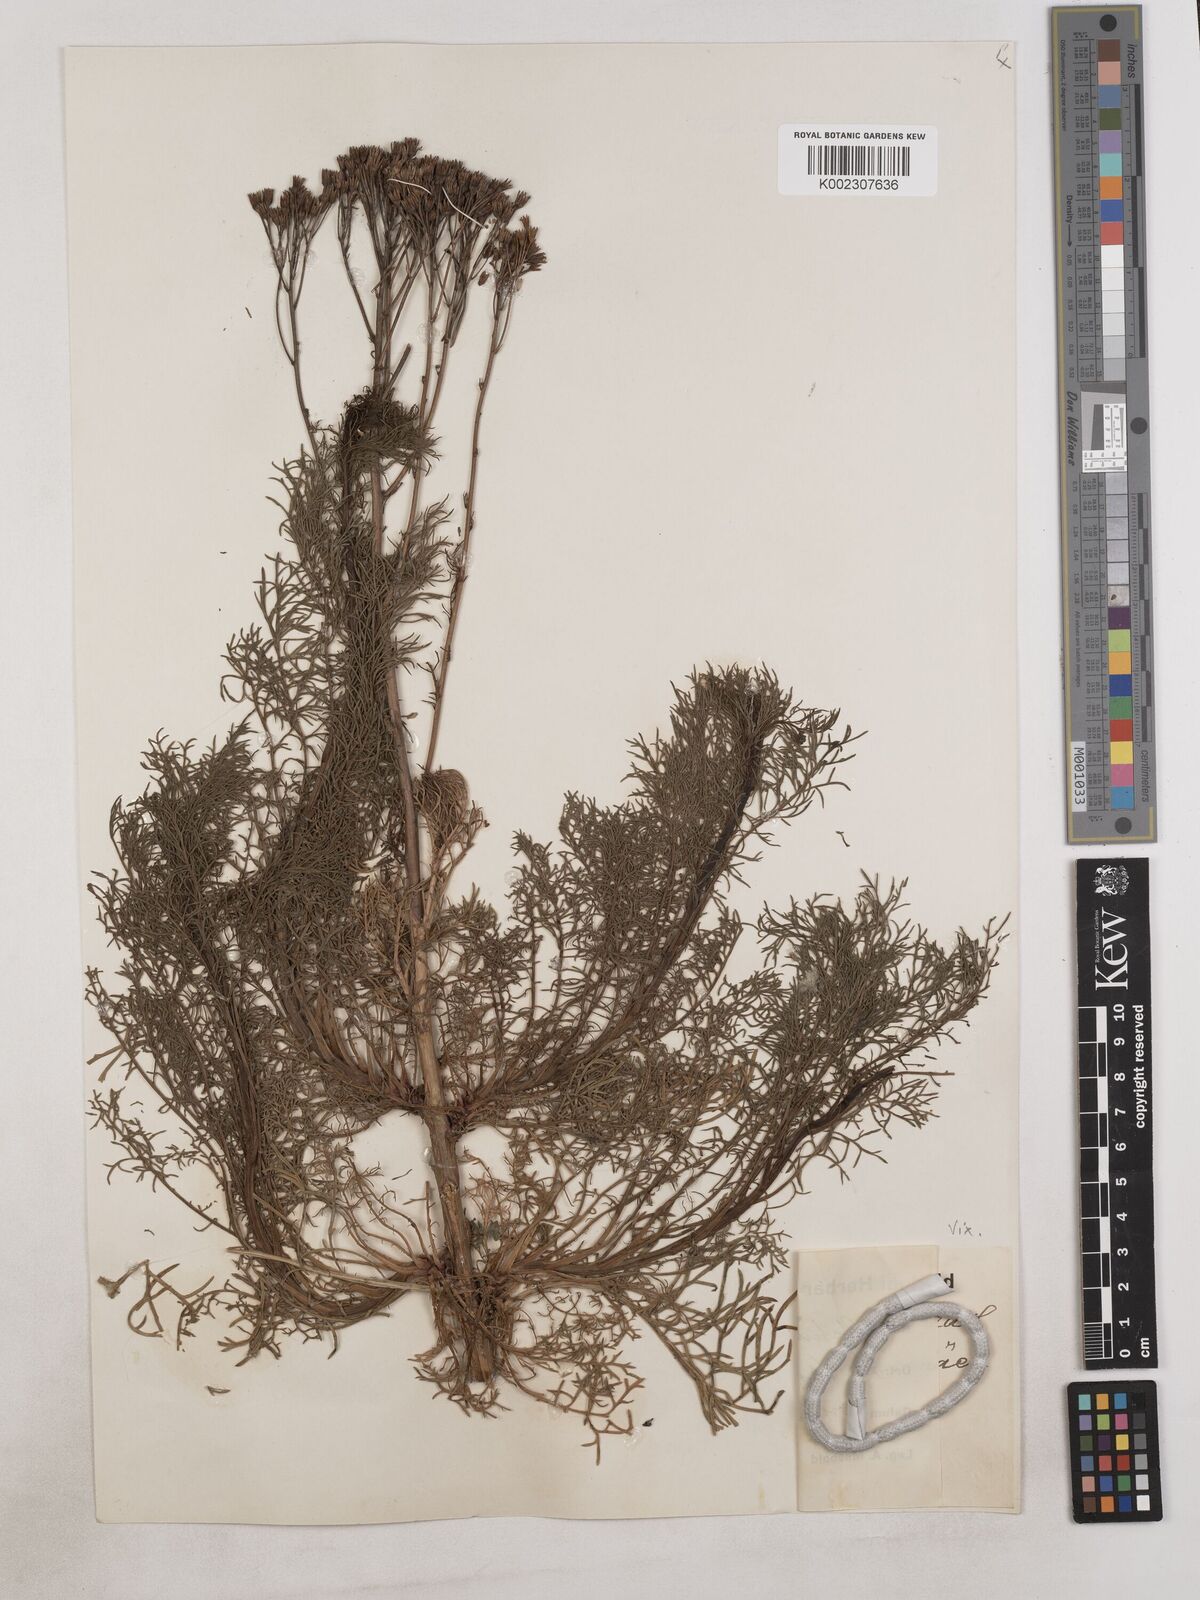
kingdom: Plantae
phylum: Tracheophyta
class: Magnoliopsida
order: Asterales
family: Asteraceae
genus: Achillea
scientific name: Achillea
